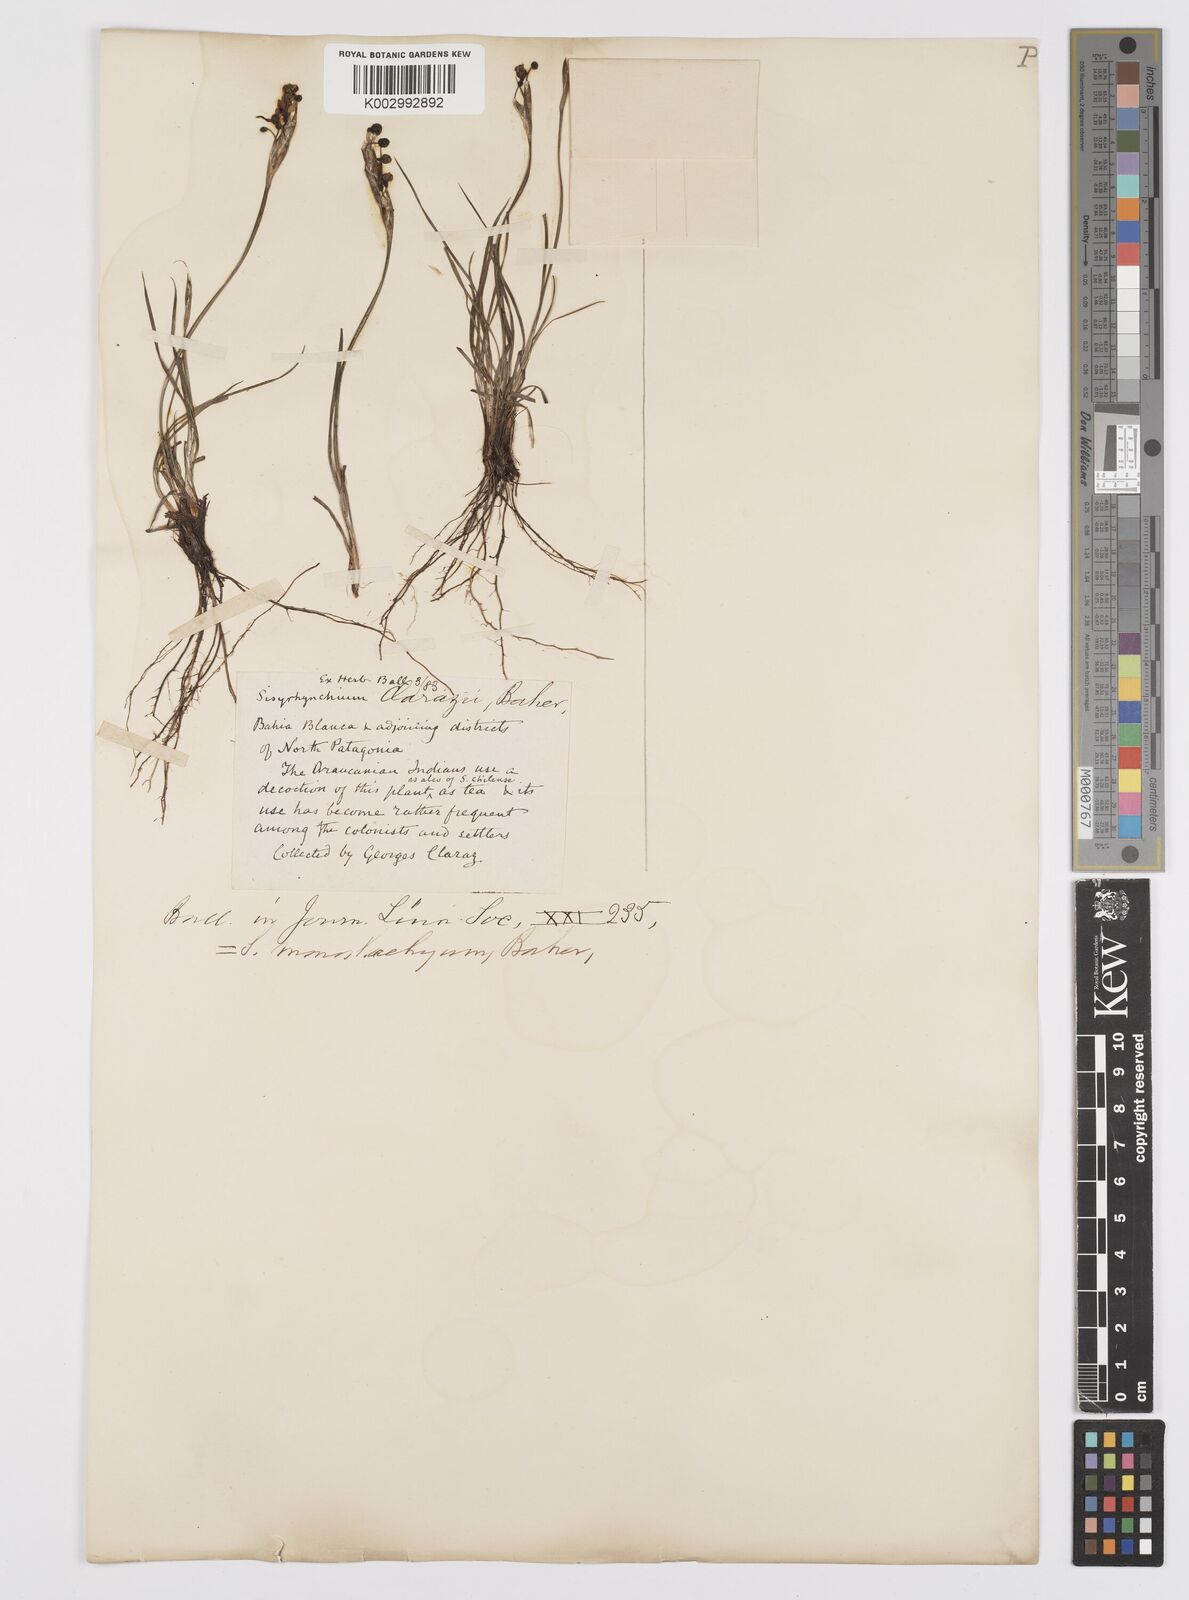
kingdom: Plantae
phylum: Tracheophyta
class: Liliopsida
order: Asparagales
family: Iridaceae
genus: Sisyrinchium
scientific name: Sisyrinchium avenaceum
